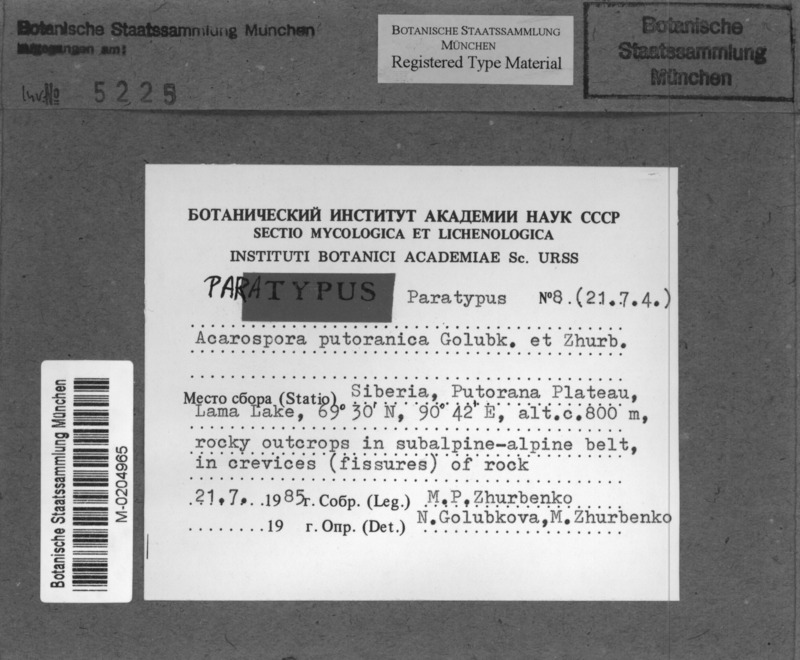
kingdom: Fungi
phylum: Ascomycota
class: Lecanoromycetes
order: Acarosporales
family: Acarosporaceae
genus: Acarospora
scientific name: Acarospora putoranica
